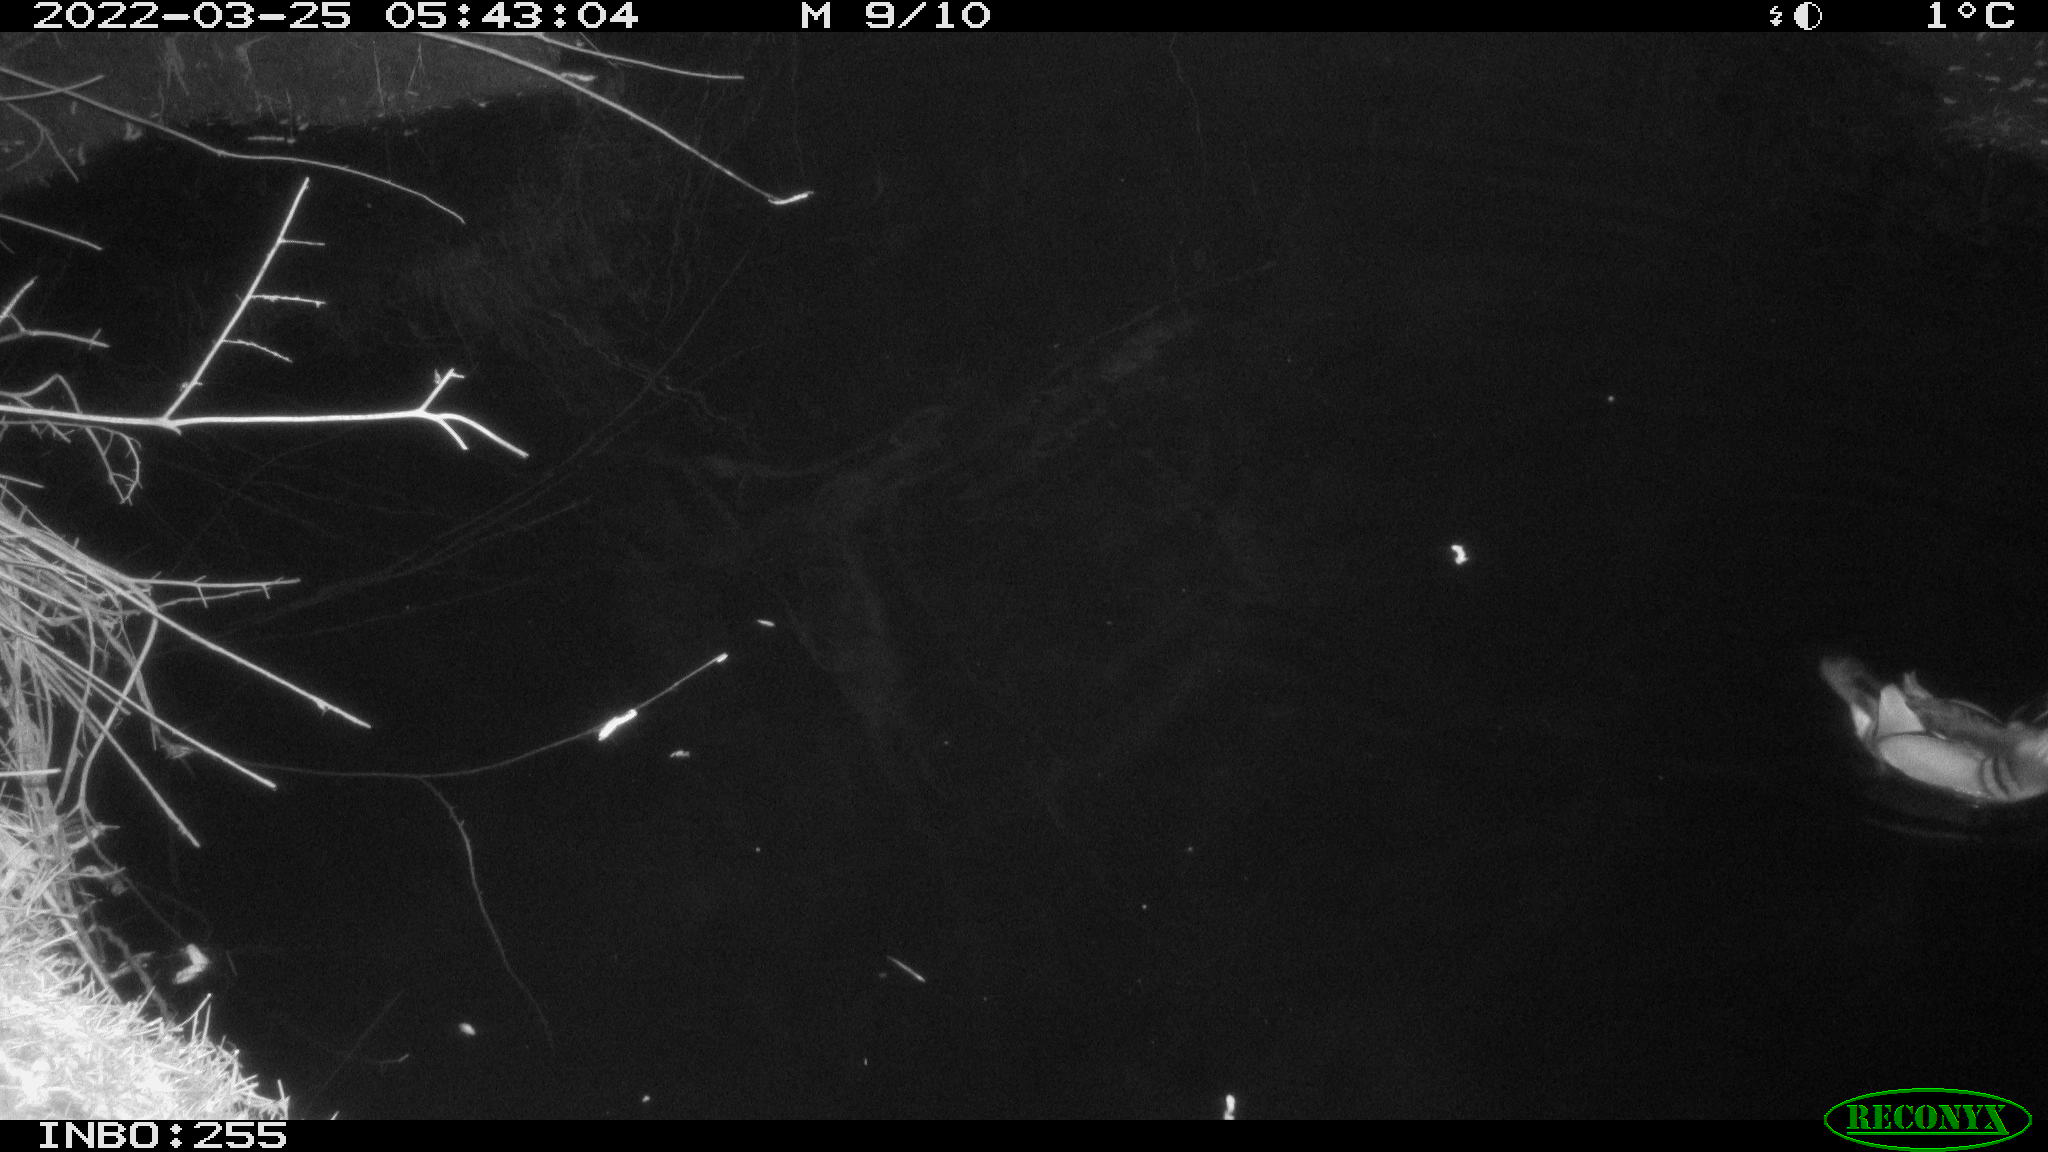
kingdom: Animalia
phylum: Chordata
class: Aves
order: Anseriformes
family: Anatidae
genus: Aix
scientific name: Aix galericulata
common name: Mandarin duck
